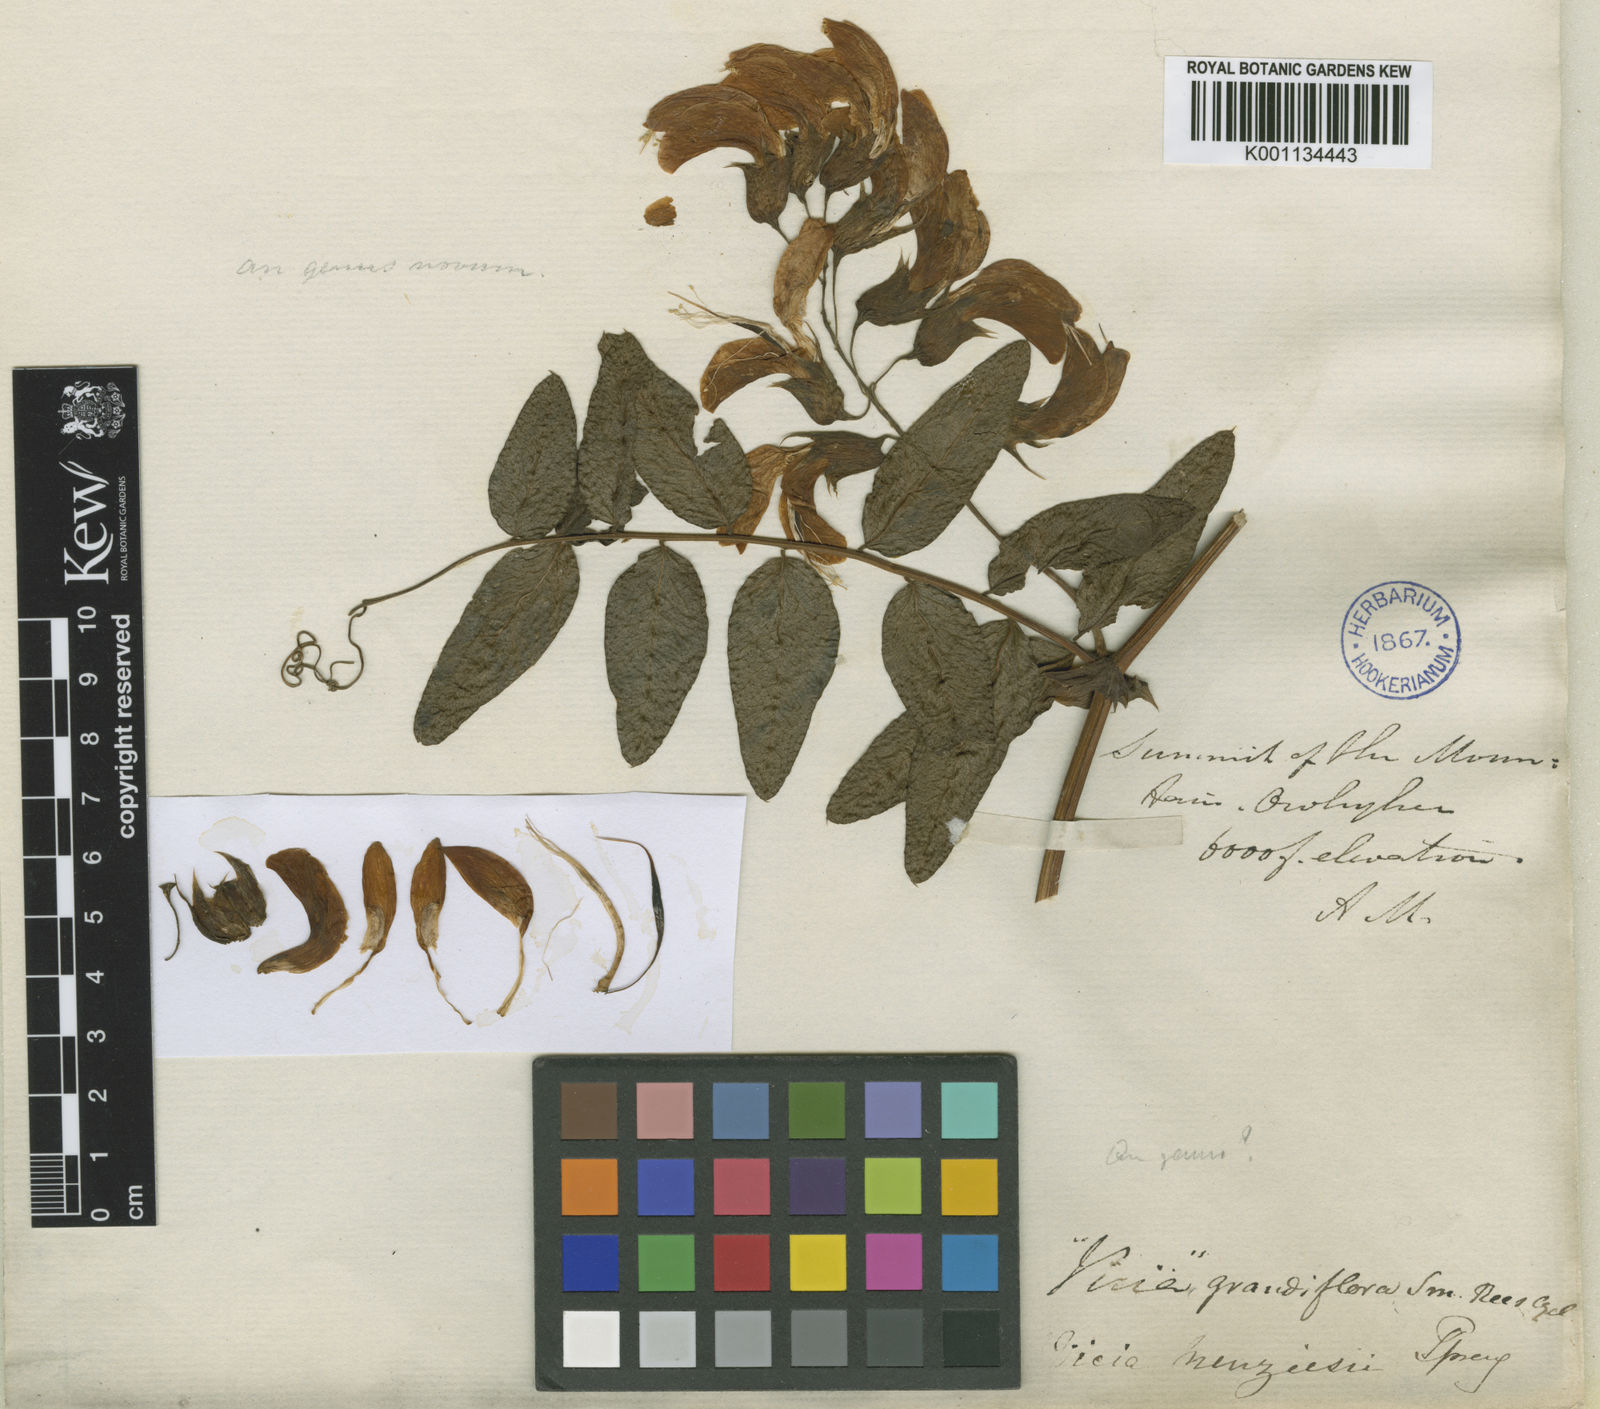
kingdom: Plantae
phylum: Tracheophyta
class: Magnoliopsida
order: Fabales
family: Fabaceae
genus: Vicia
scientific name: Vicia menziesii
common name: Hawaiian vetch
